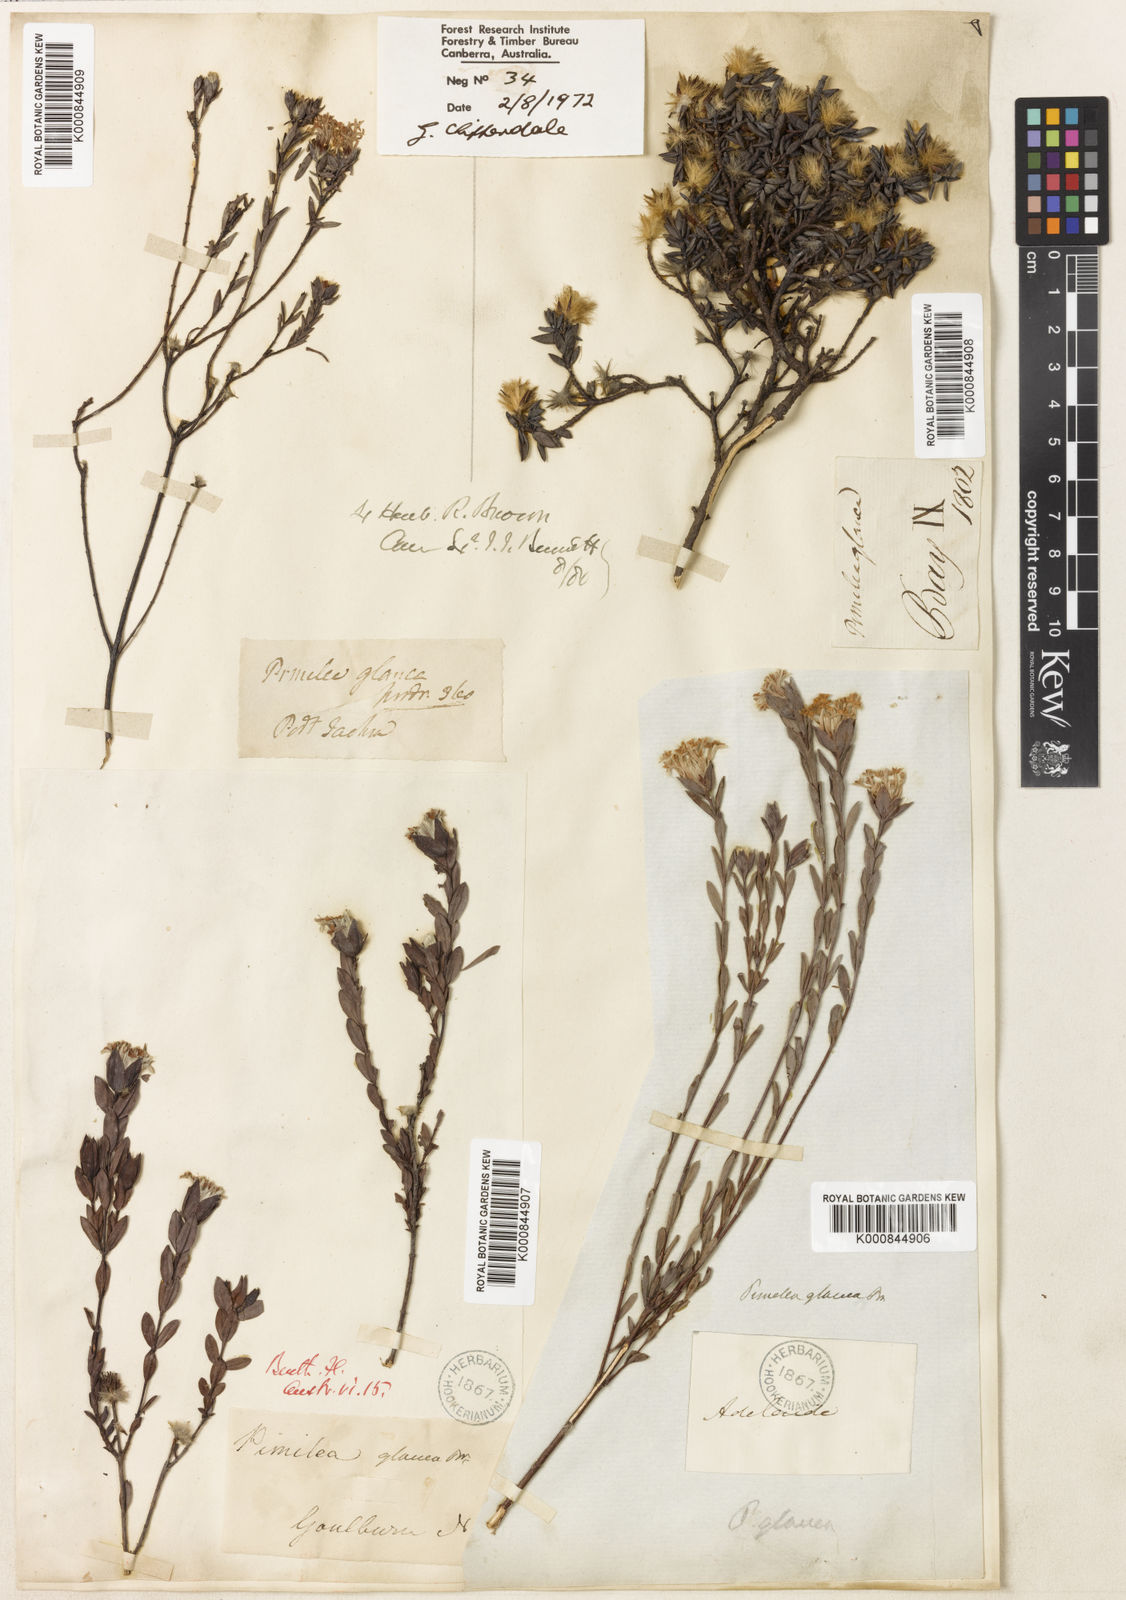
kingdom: Plantae
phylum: Tracheophyta
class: Magnoliopsida
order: Malvales
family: Thymelaeaceae
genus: Pimelea
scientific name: Pimelea glauca
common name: Smooth riceflower
